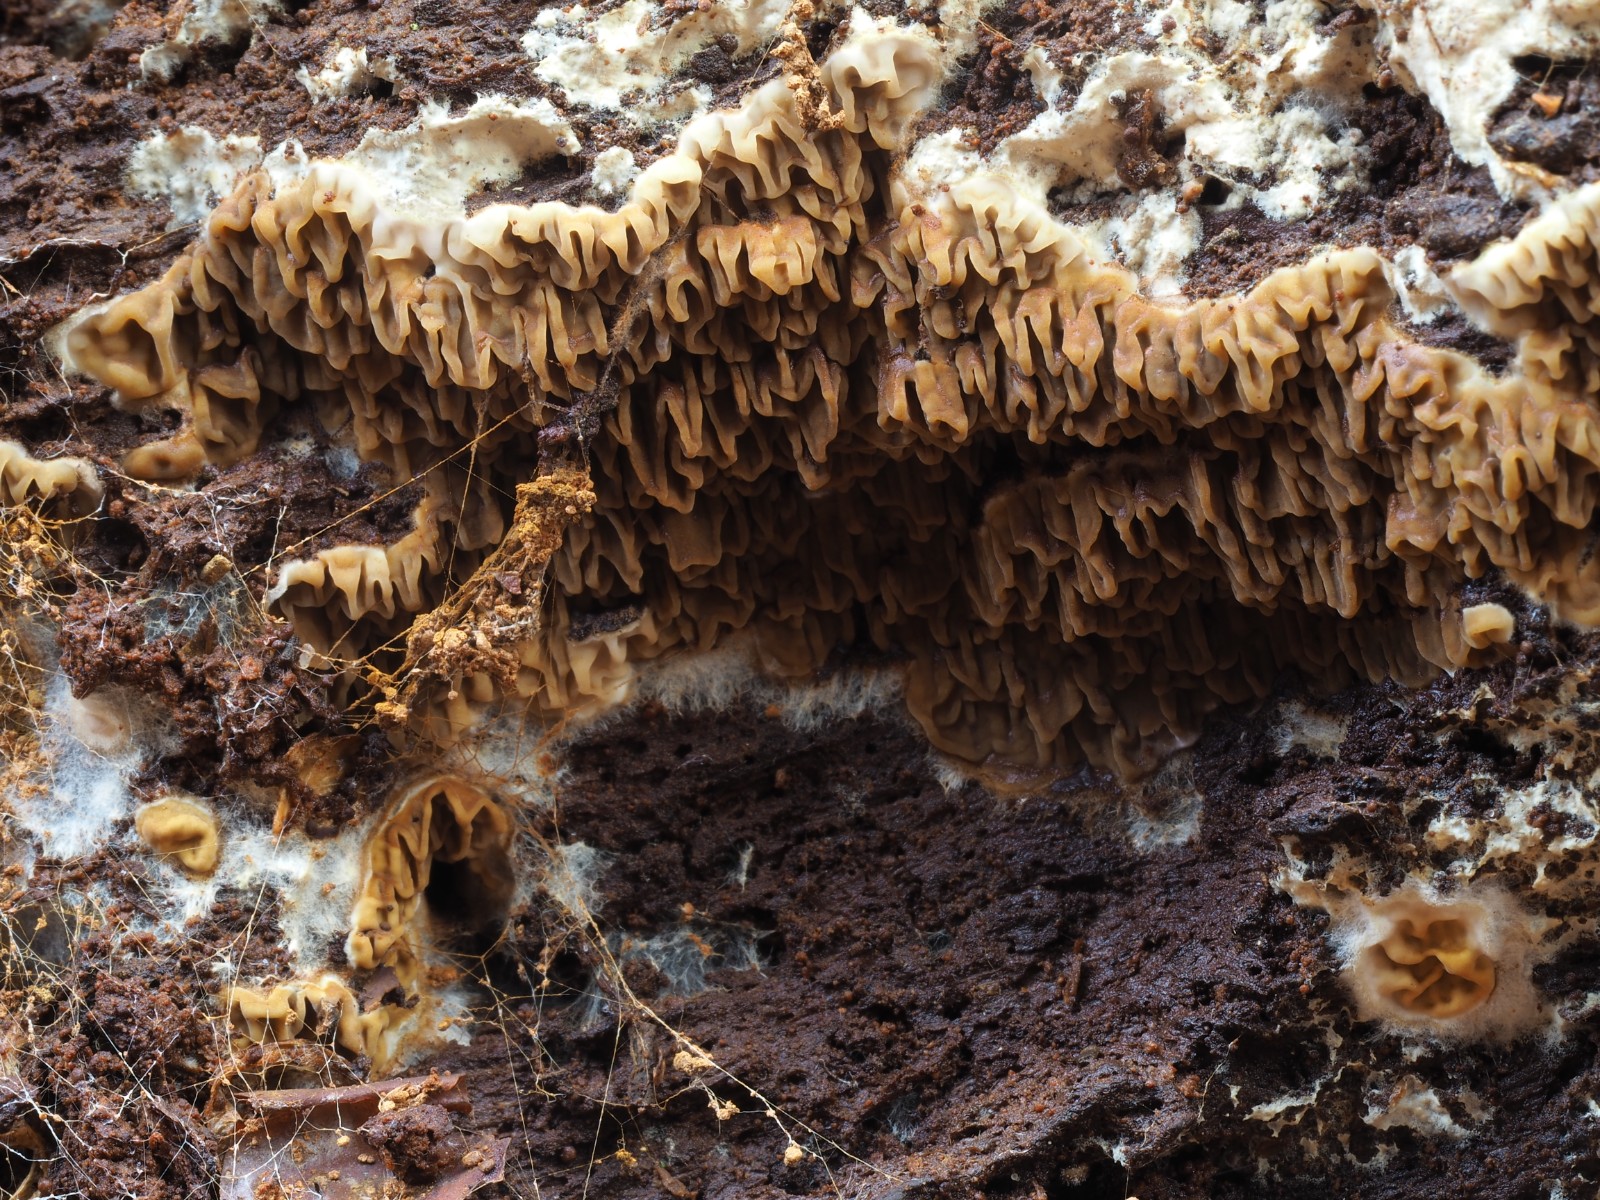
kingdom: Fungi
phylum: Basidiomycota
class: Agaricomycetes
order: Boletales
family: Serpulaceae
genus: Serpula
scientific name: Serpula himantioides
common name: tyndkødet hussvamp
